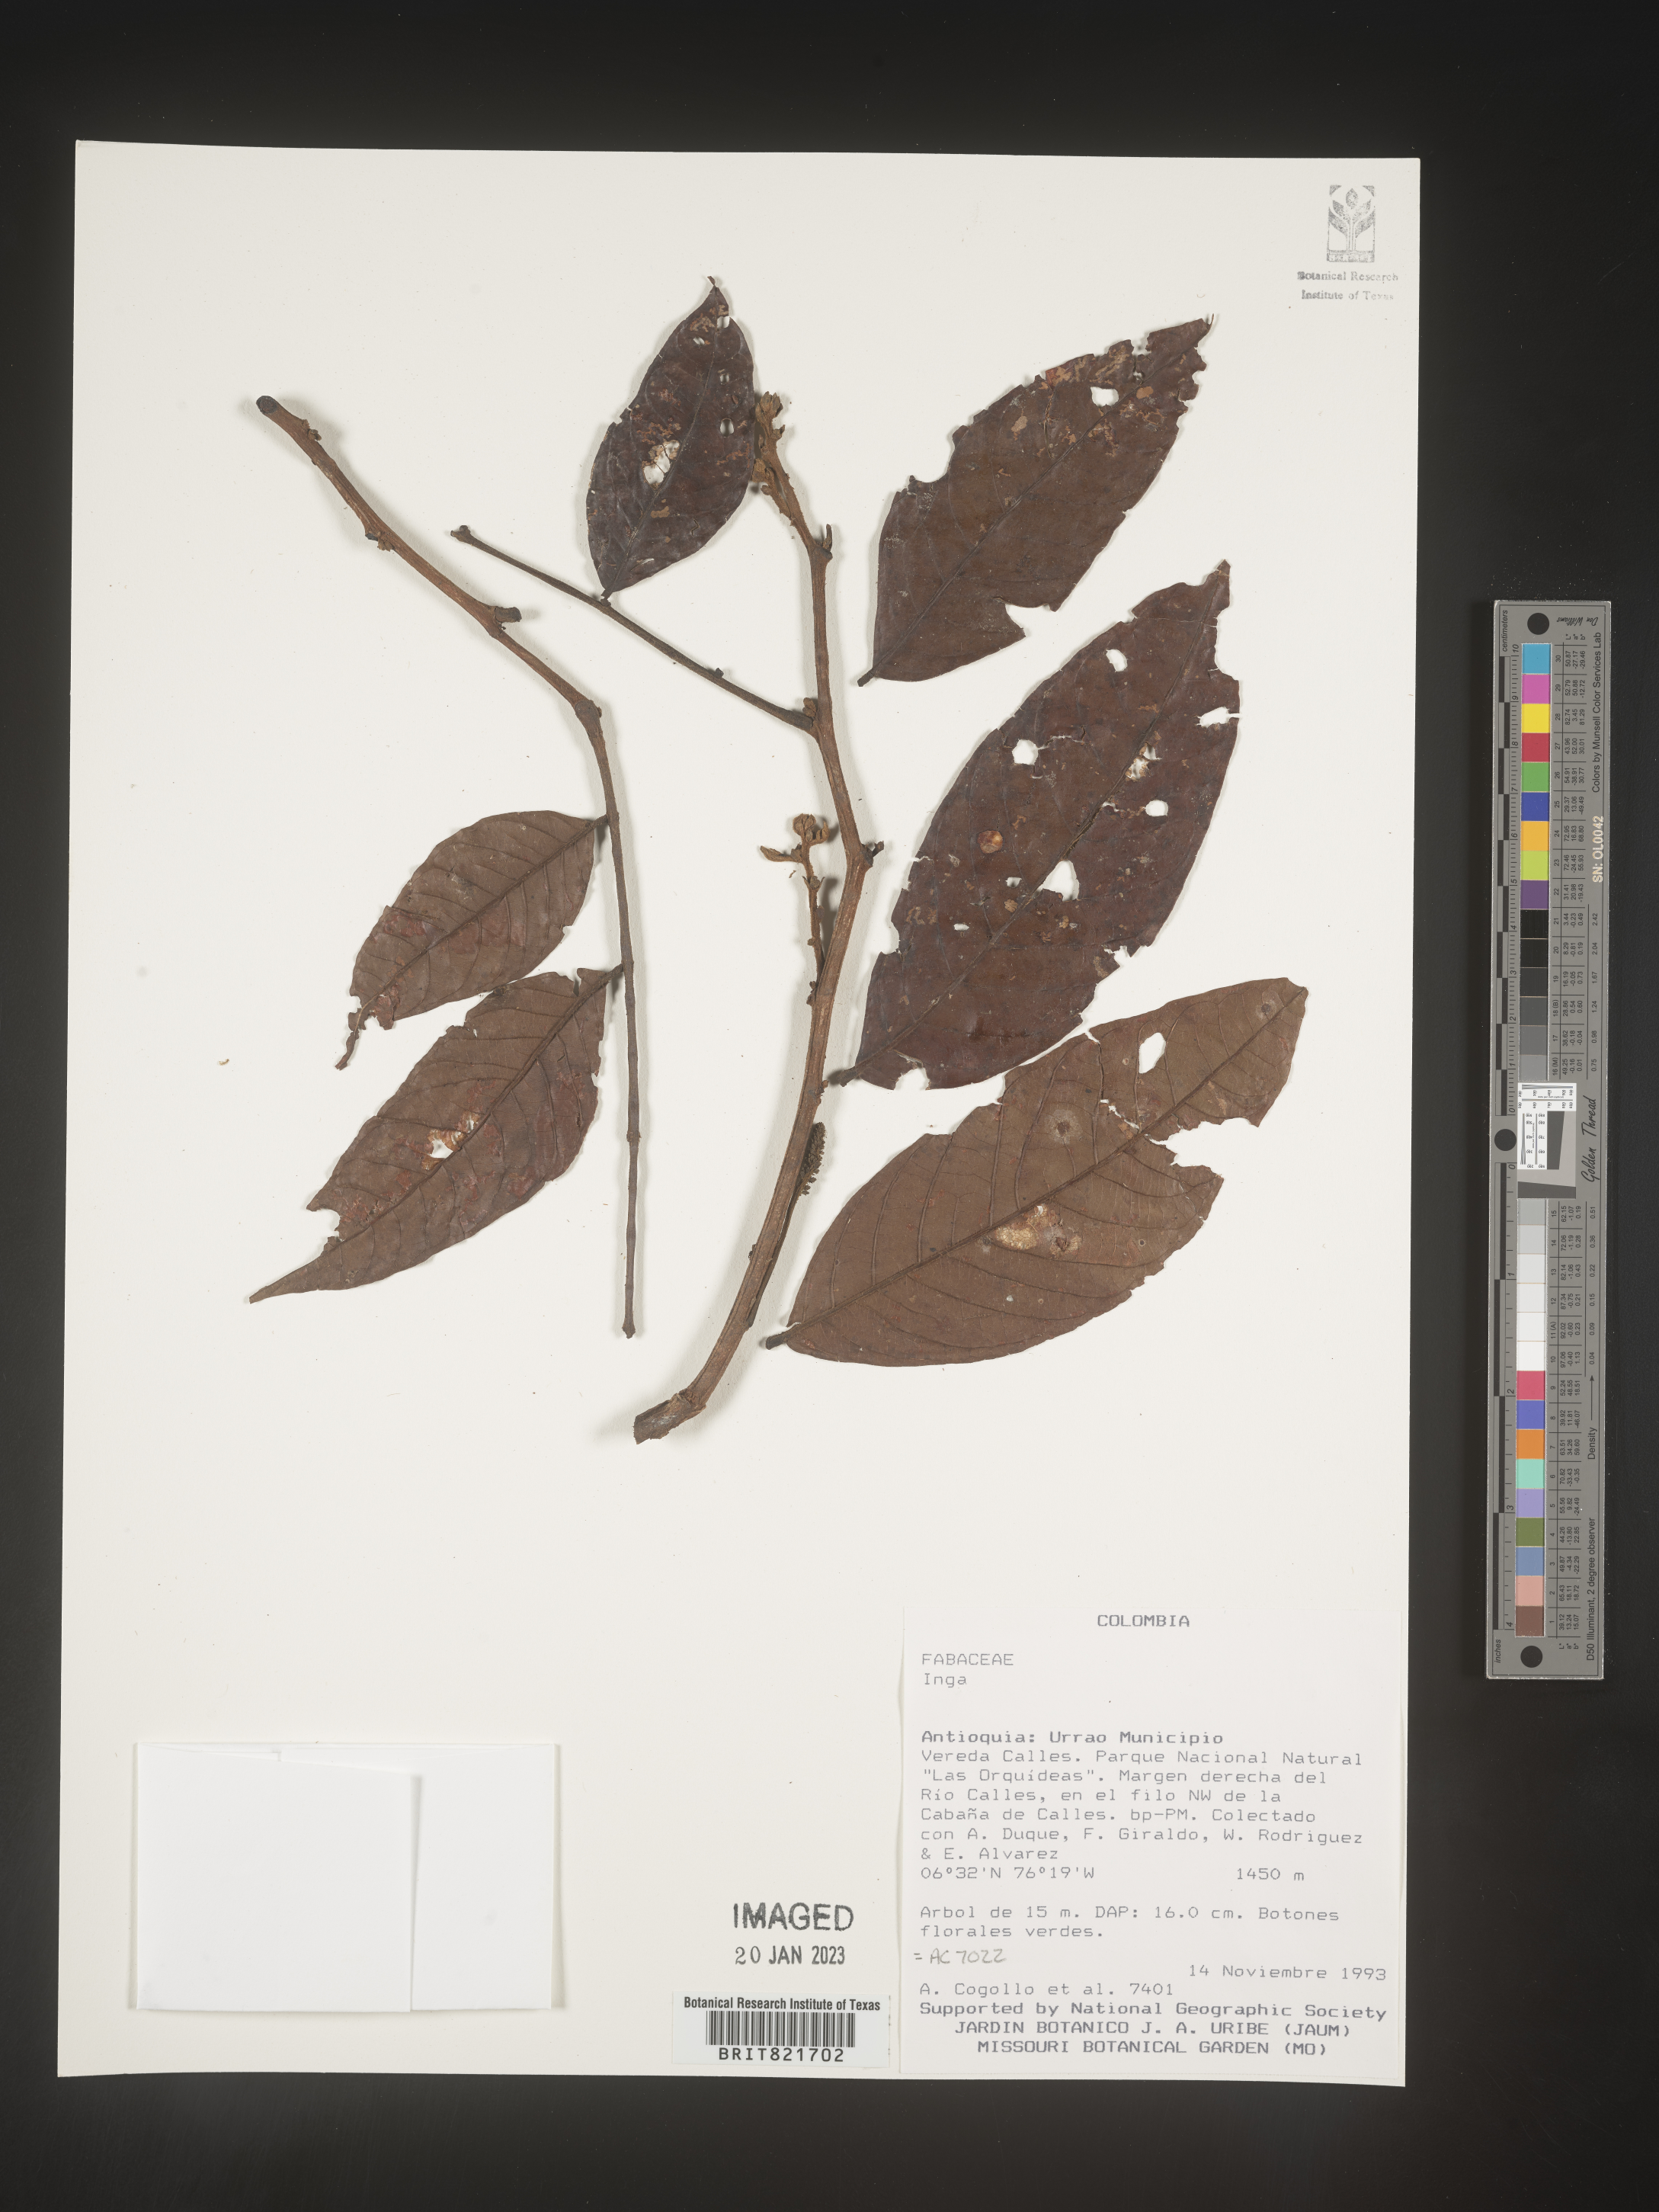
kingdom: Plantae
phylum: Tracheophyta
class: Magnoliopsida
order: Fabales
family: Fabaceae
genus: Inga
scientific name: Inga
